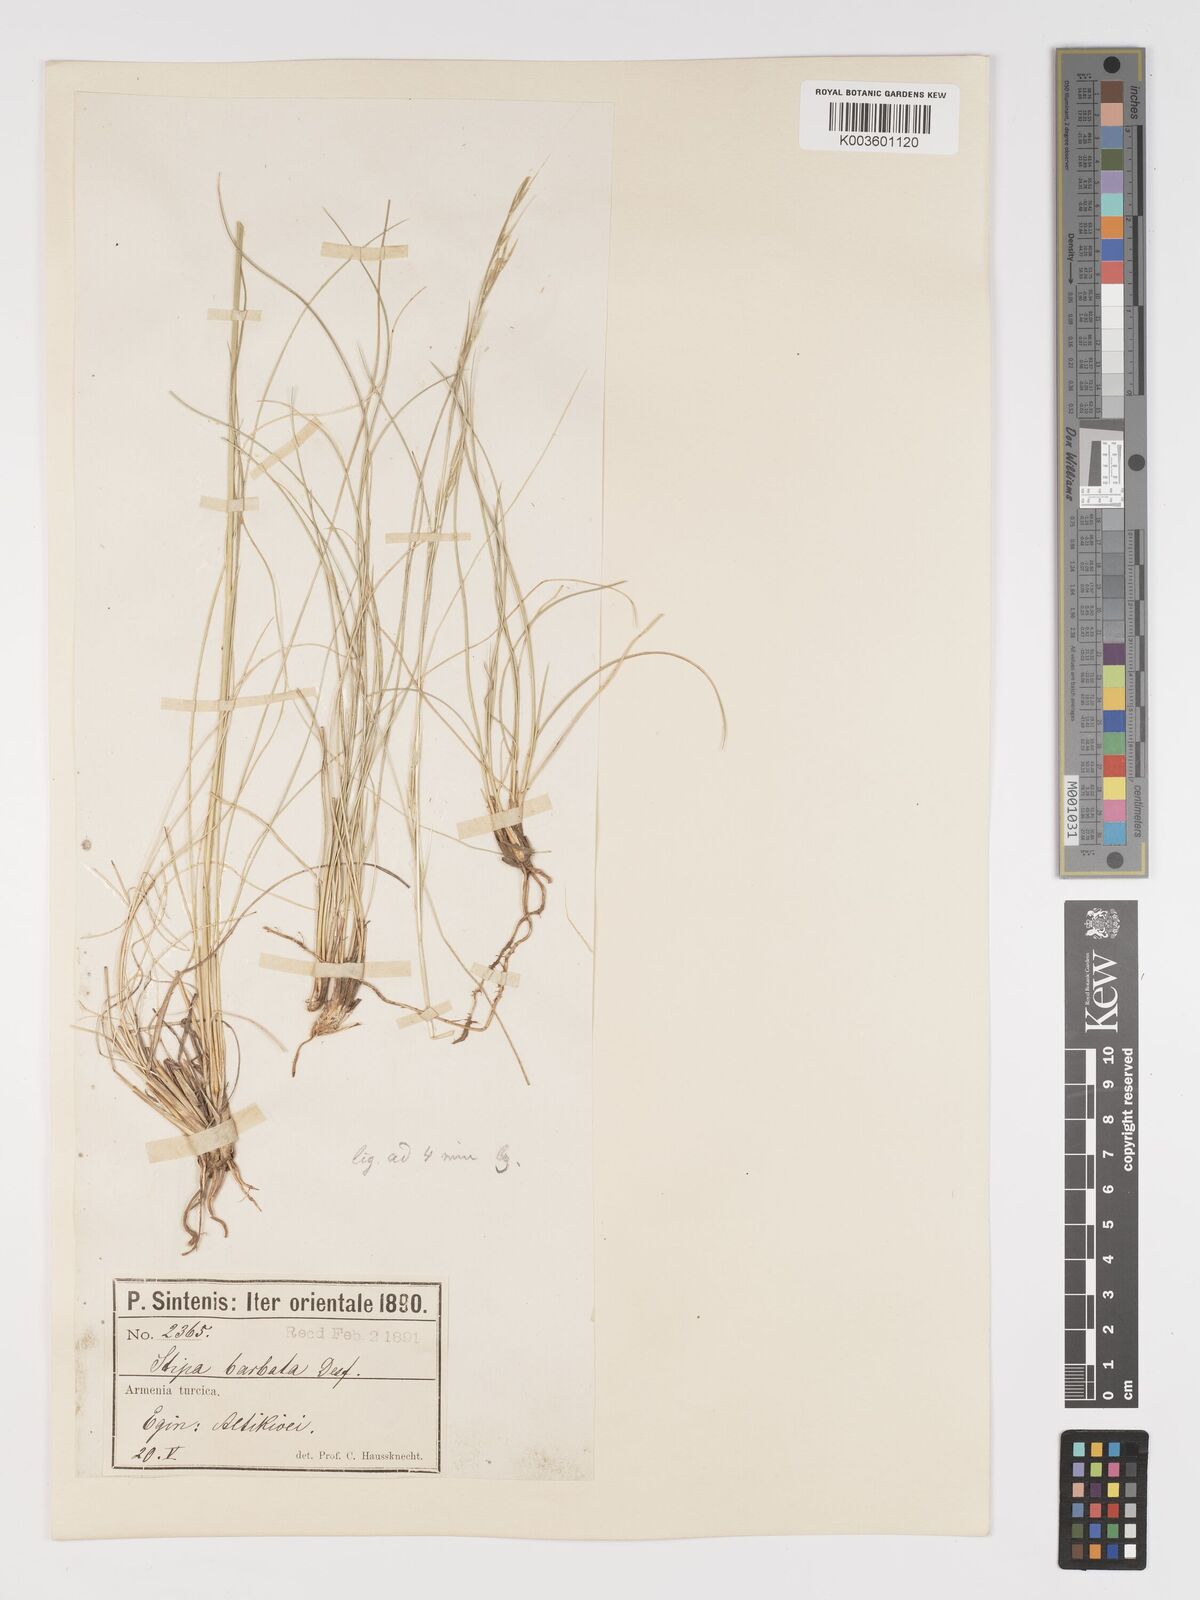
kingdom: Plantae
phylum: Tracheophyta
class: Liliopsida
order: Poales
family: Poaceae
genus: Stipa
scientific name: Stipa arabica
